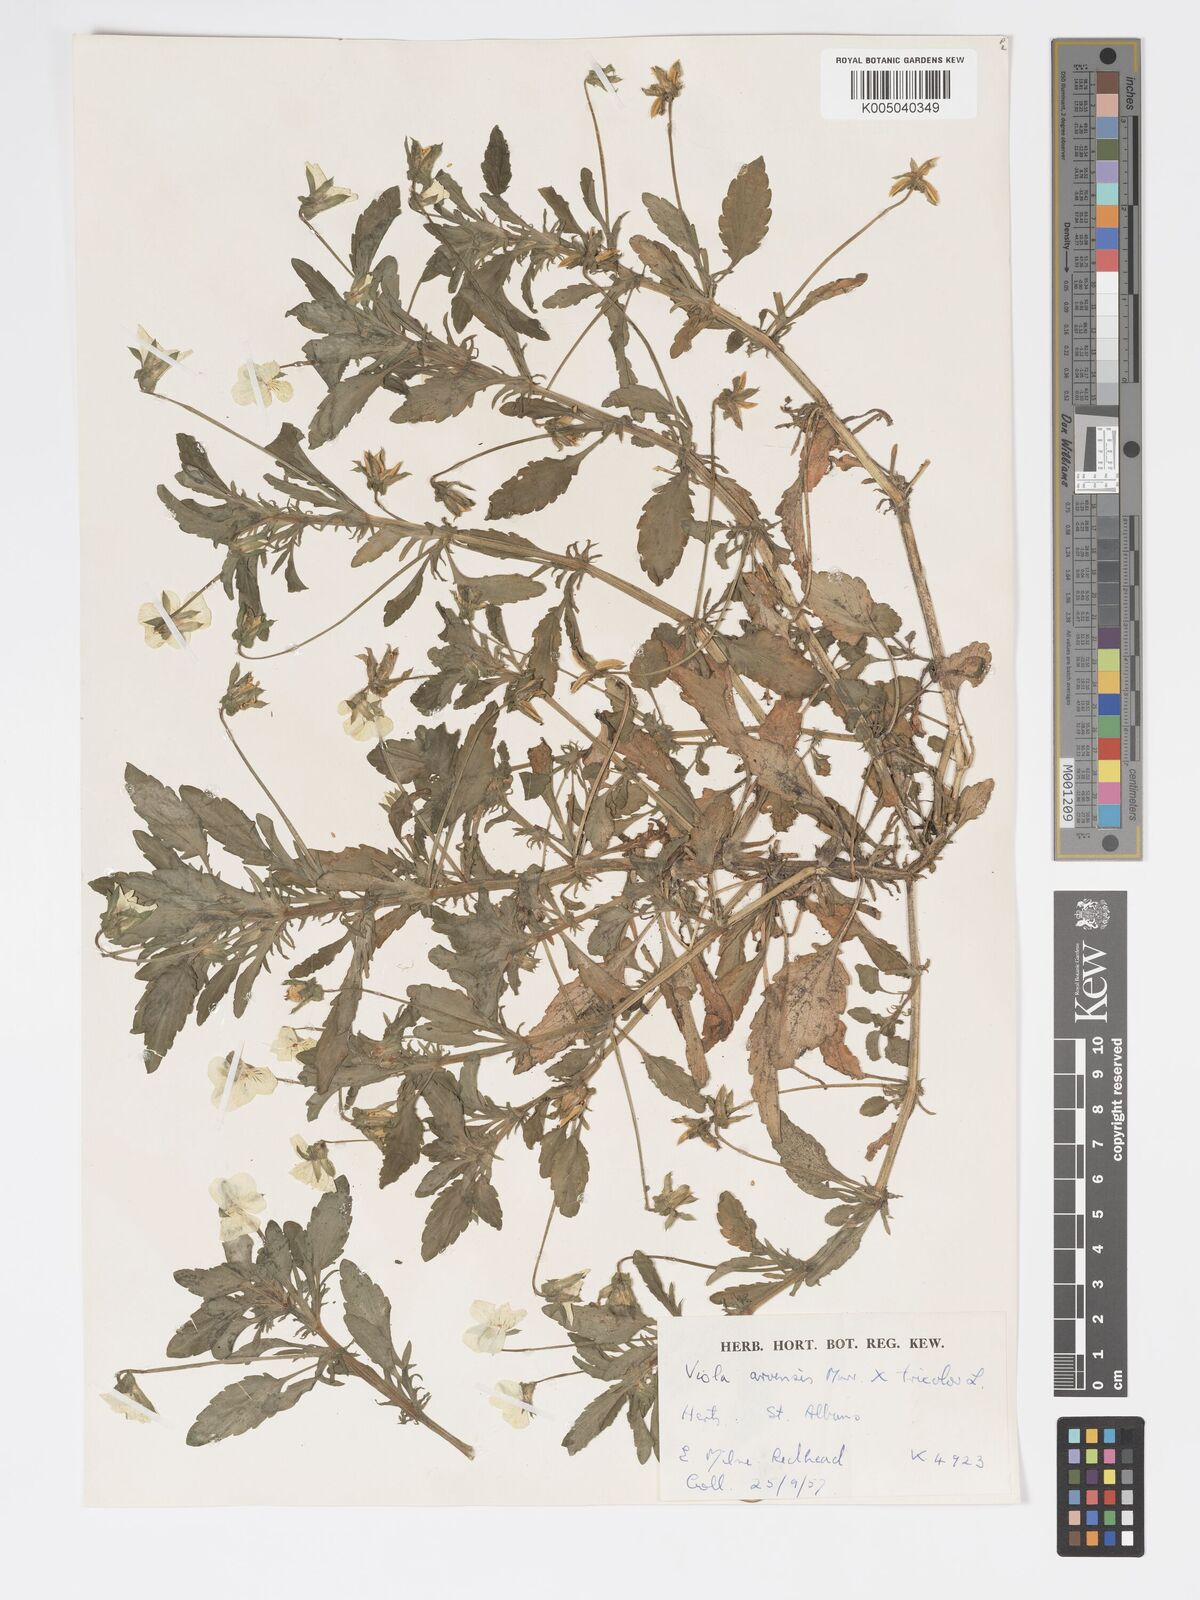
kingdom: Plantae
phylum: Tracheophyta
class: Magnoliopsida
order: Malpighiales
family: Violaceae
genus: Viola
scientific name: Viola arvensis
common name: Field pansy
